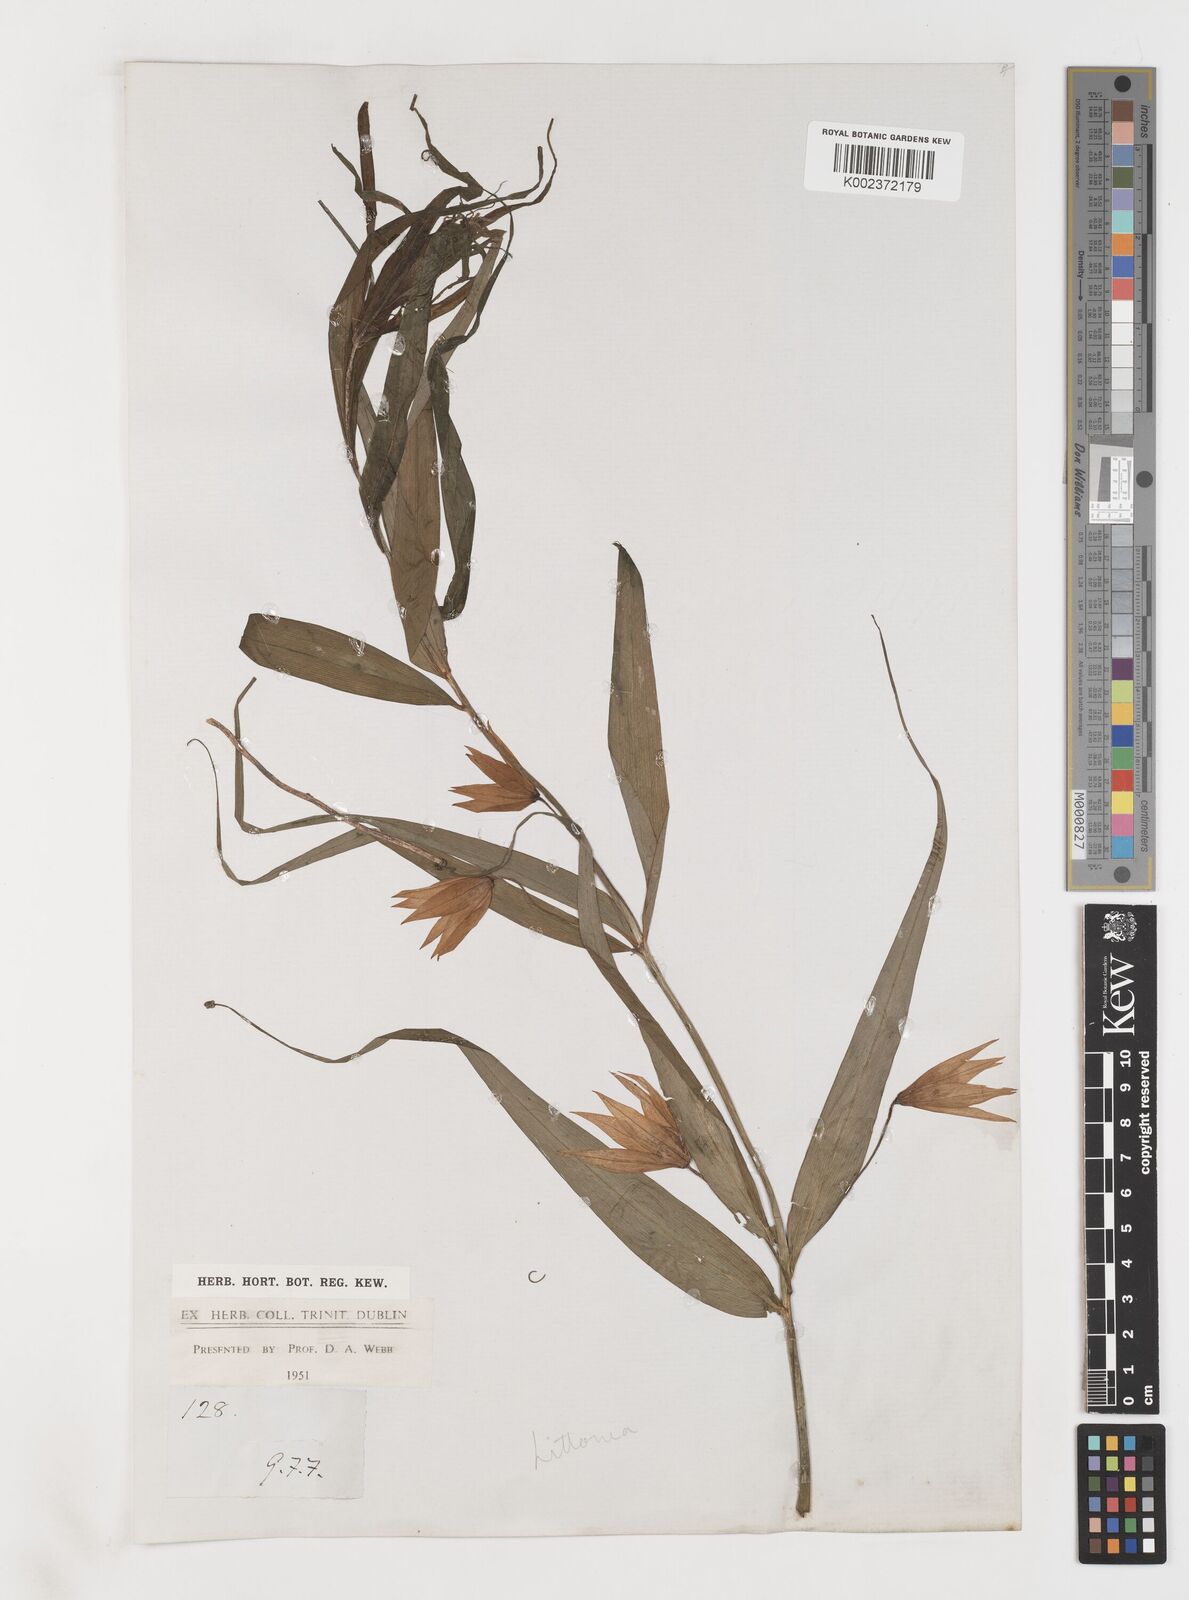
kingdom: Plantae
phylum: Tracheophyta
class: Liliopsida
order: Liliales
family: Colchicaceae
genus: Gloriosa
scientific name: Gloriosa modesta
